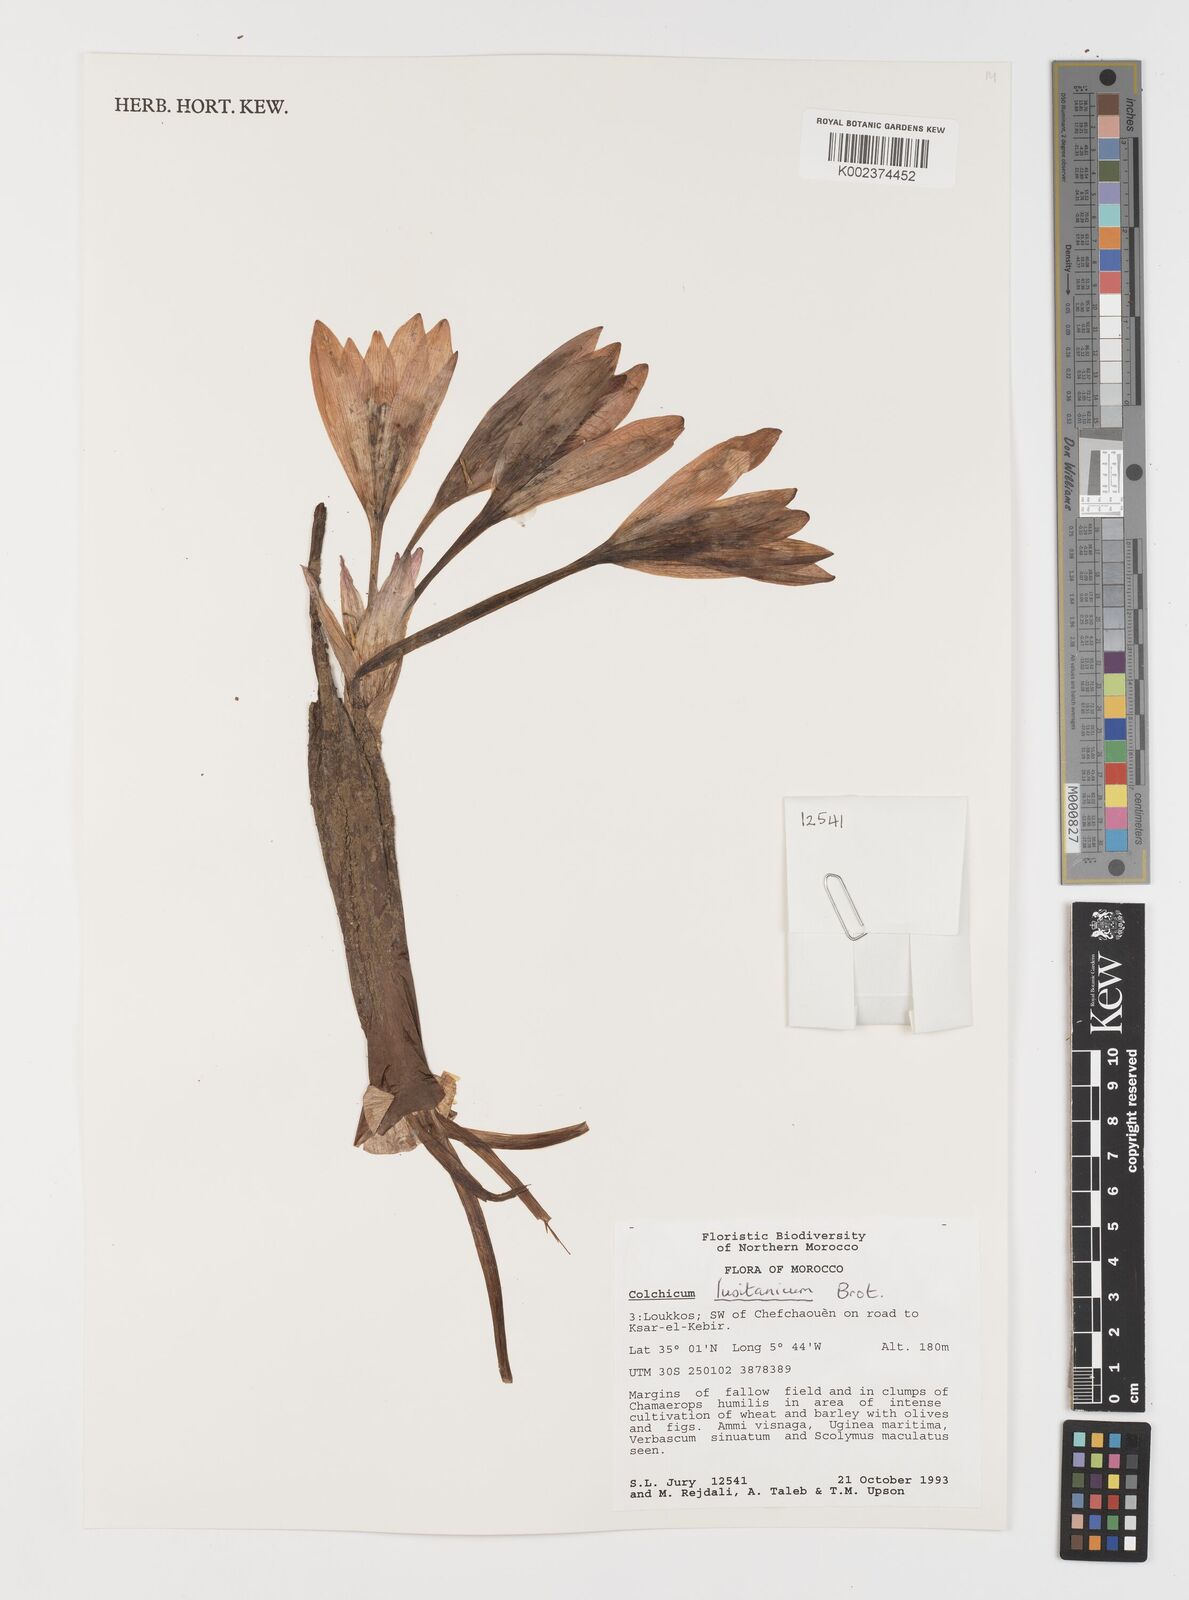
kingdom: Plantae
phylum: Tracheophyta
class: Liliopsida
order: Liliales
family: Colchicaceae
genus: Colchicum
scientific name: Colchicum lusitanum
